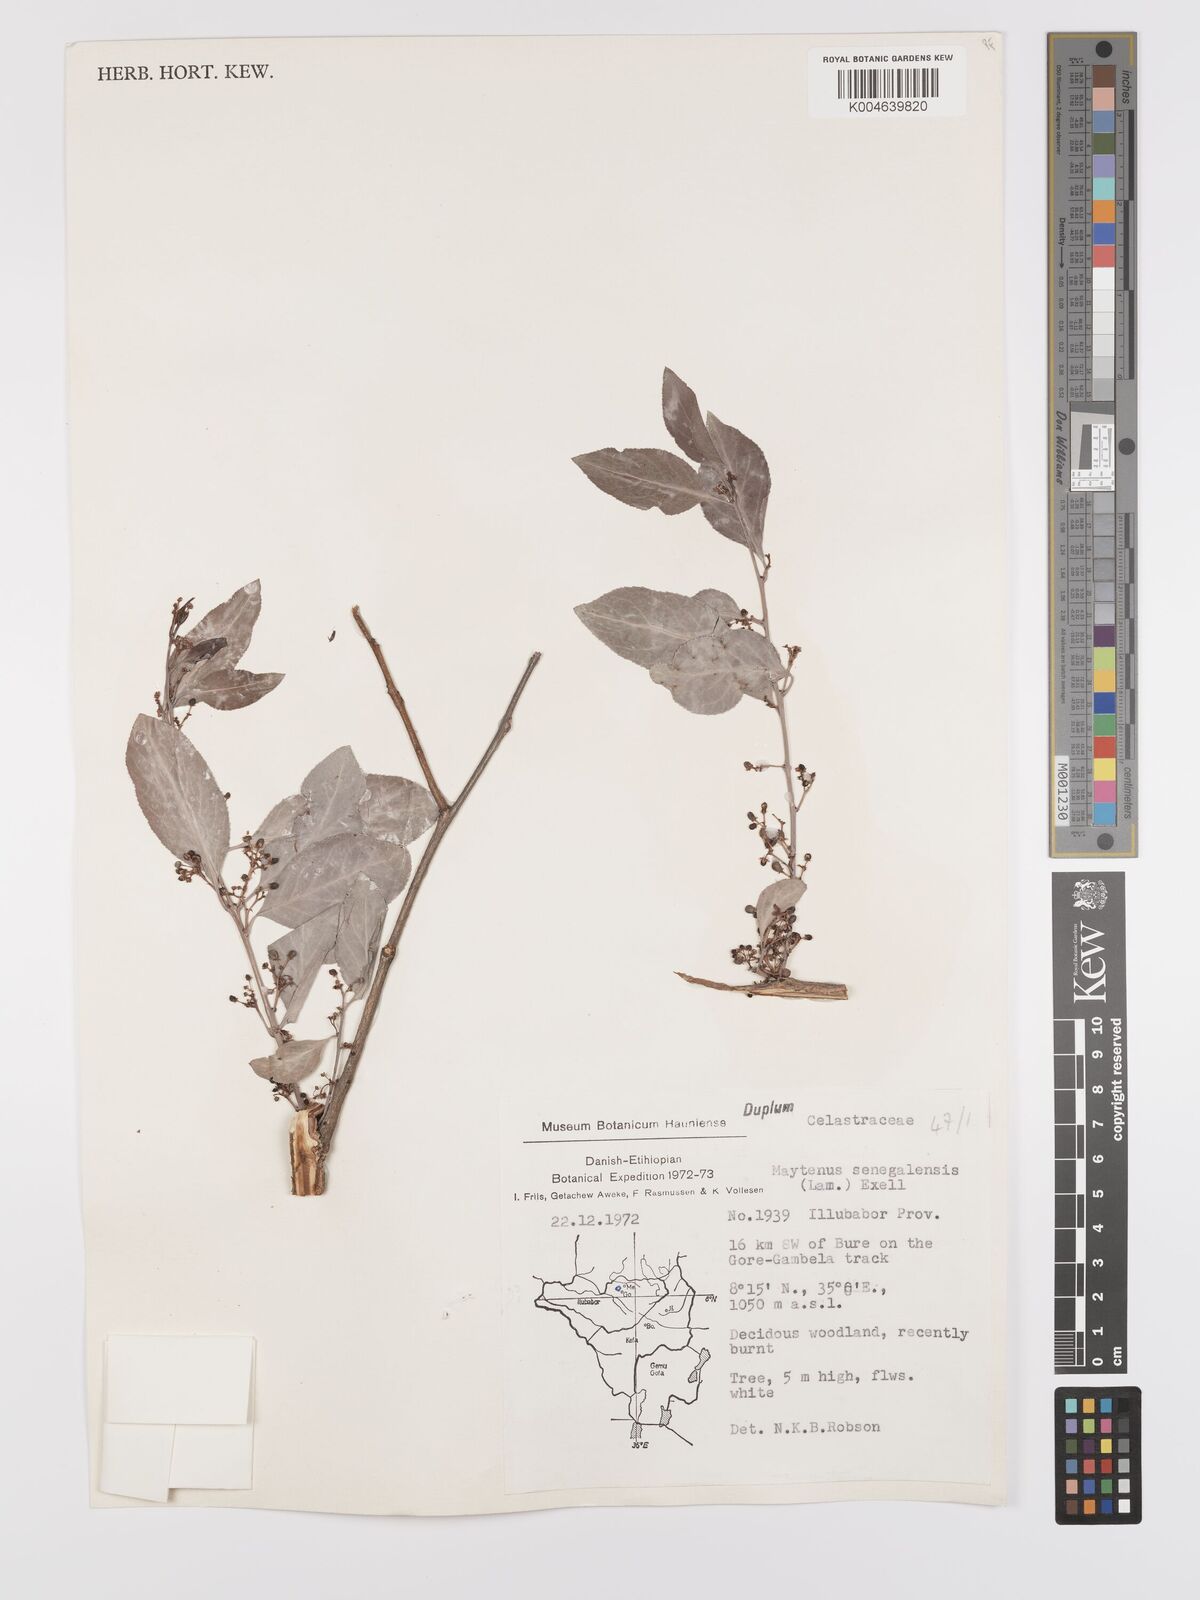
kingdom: Plantae
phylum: Tracheophyta
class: Magnoliopsida
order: Celastrales
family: Celastraceae
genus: Gymnosporia
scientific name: Gymnosporia senegalensis
